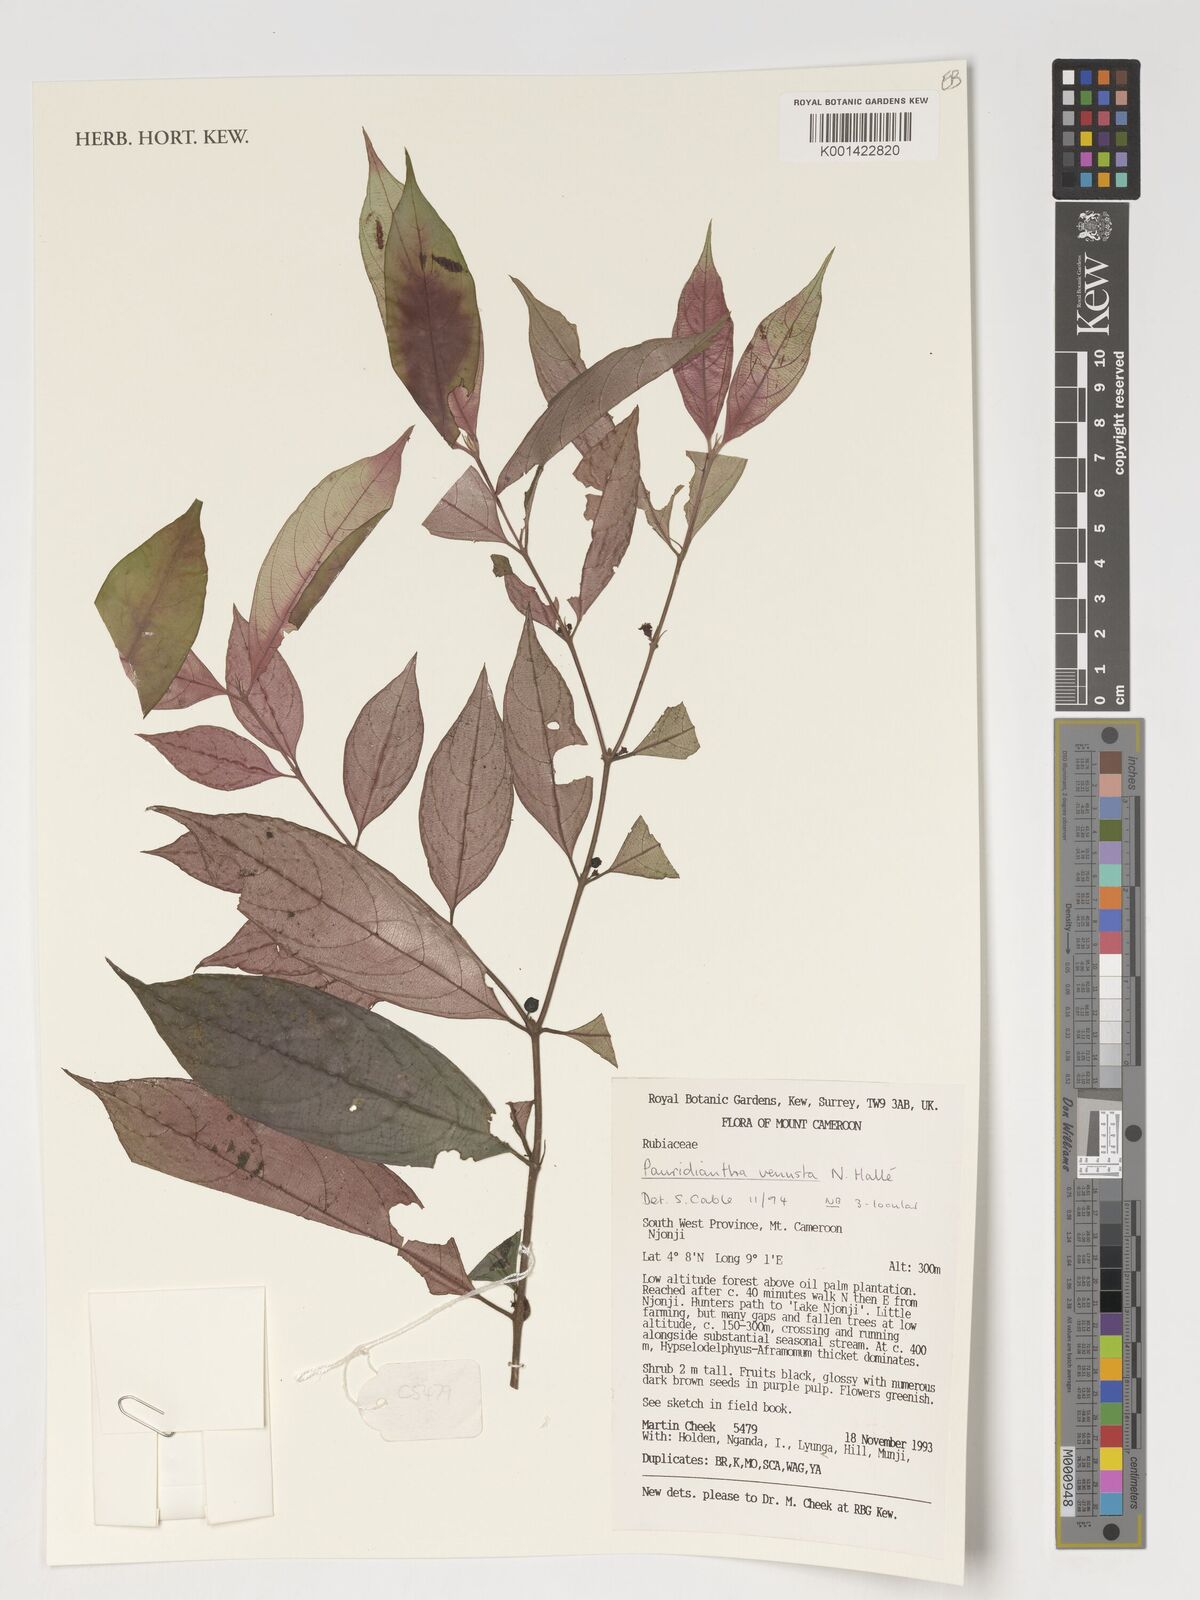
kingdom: Plantae
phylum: Tracheophyta
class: Magnoliopsida
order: Gentianales
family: Rubiaceae
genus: Pauridiantha
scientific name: Pauridiantha talbotii
